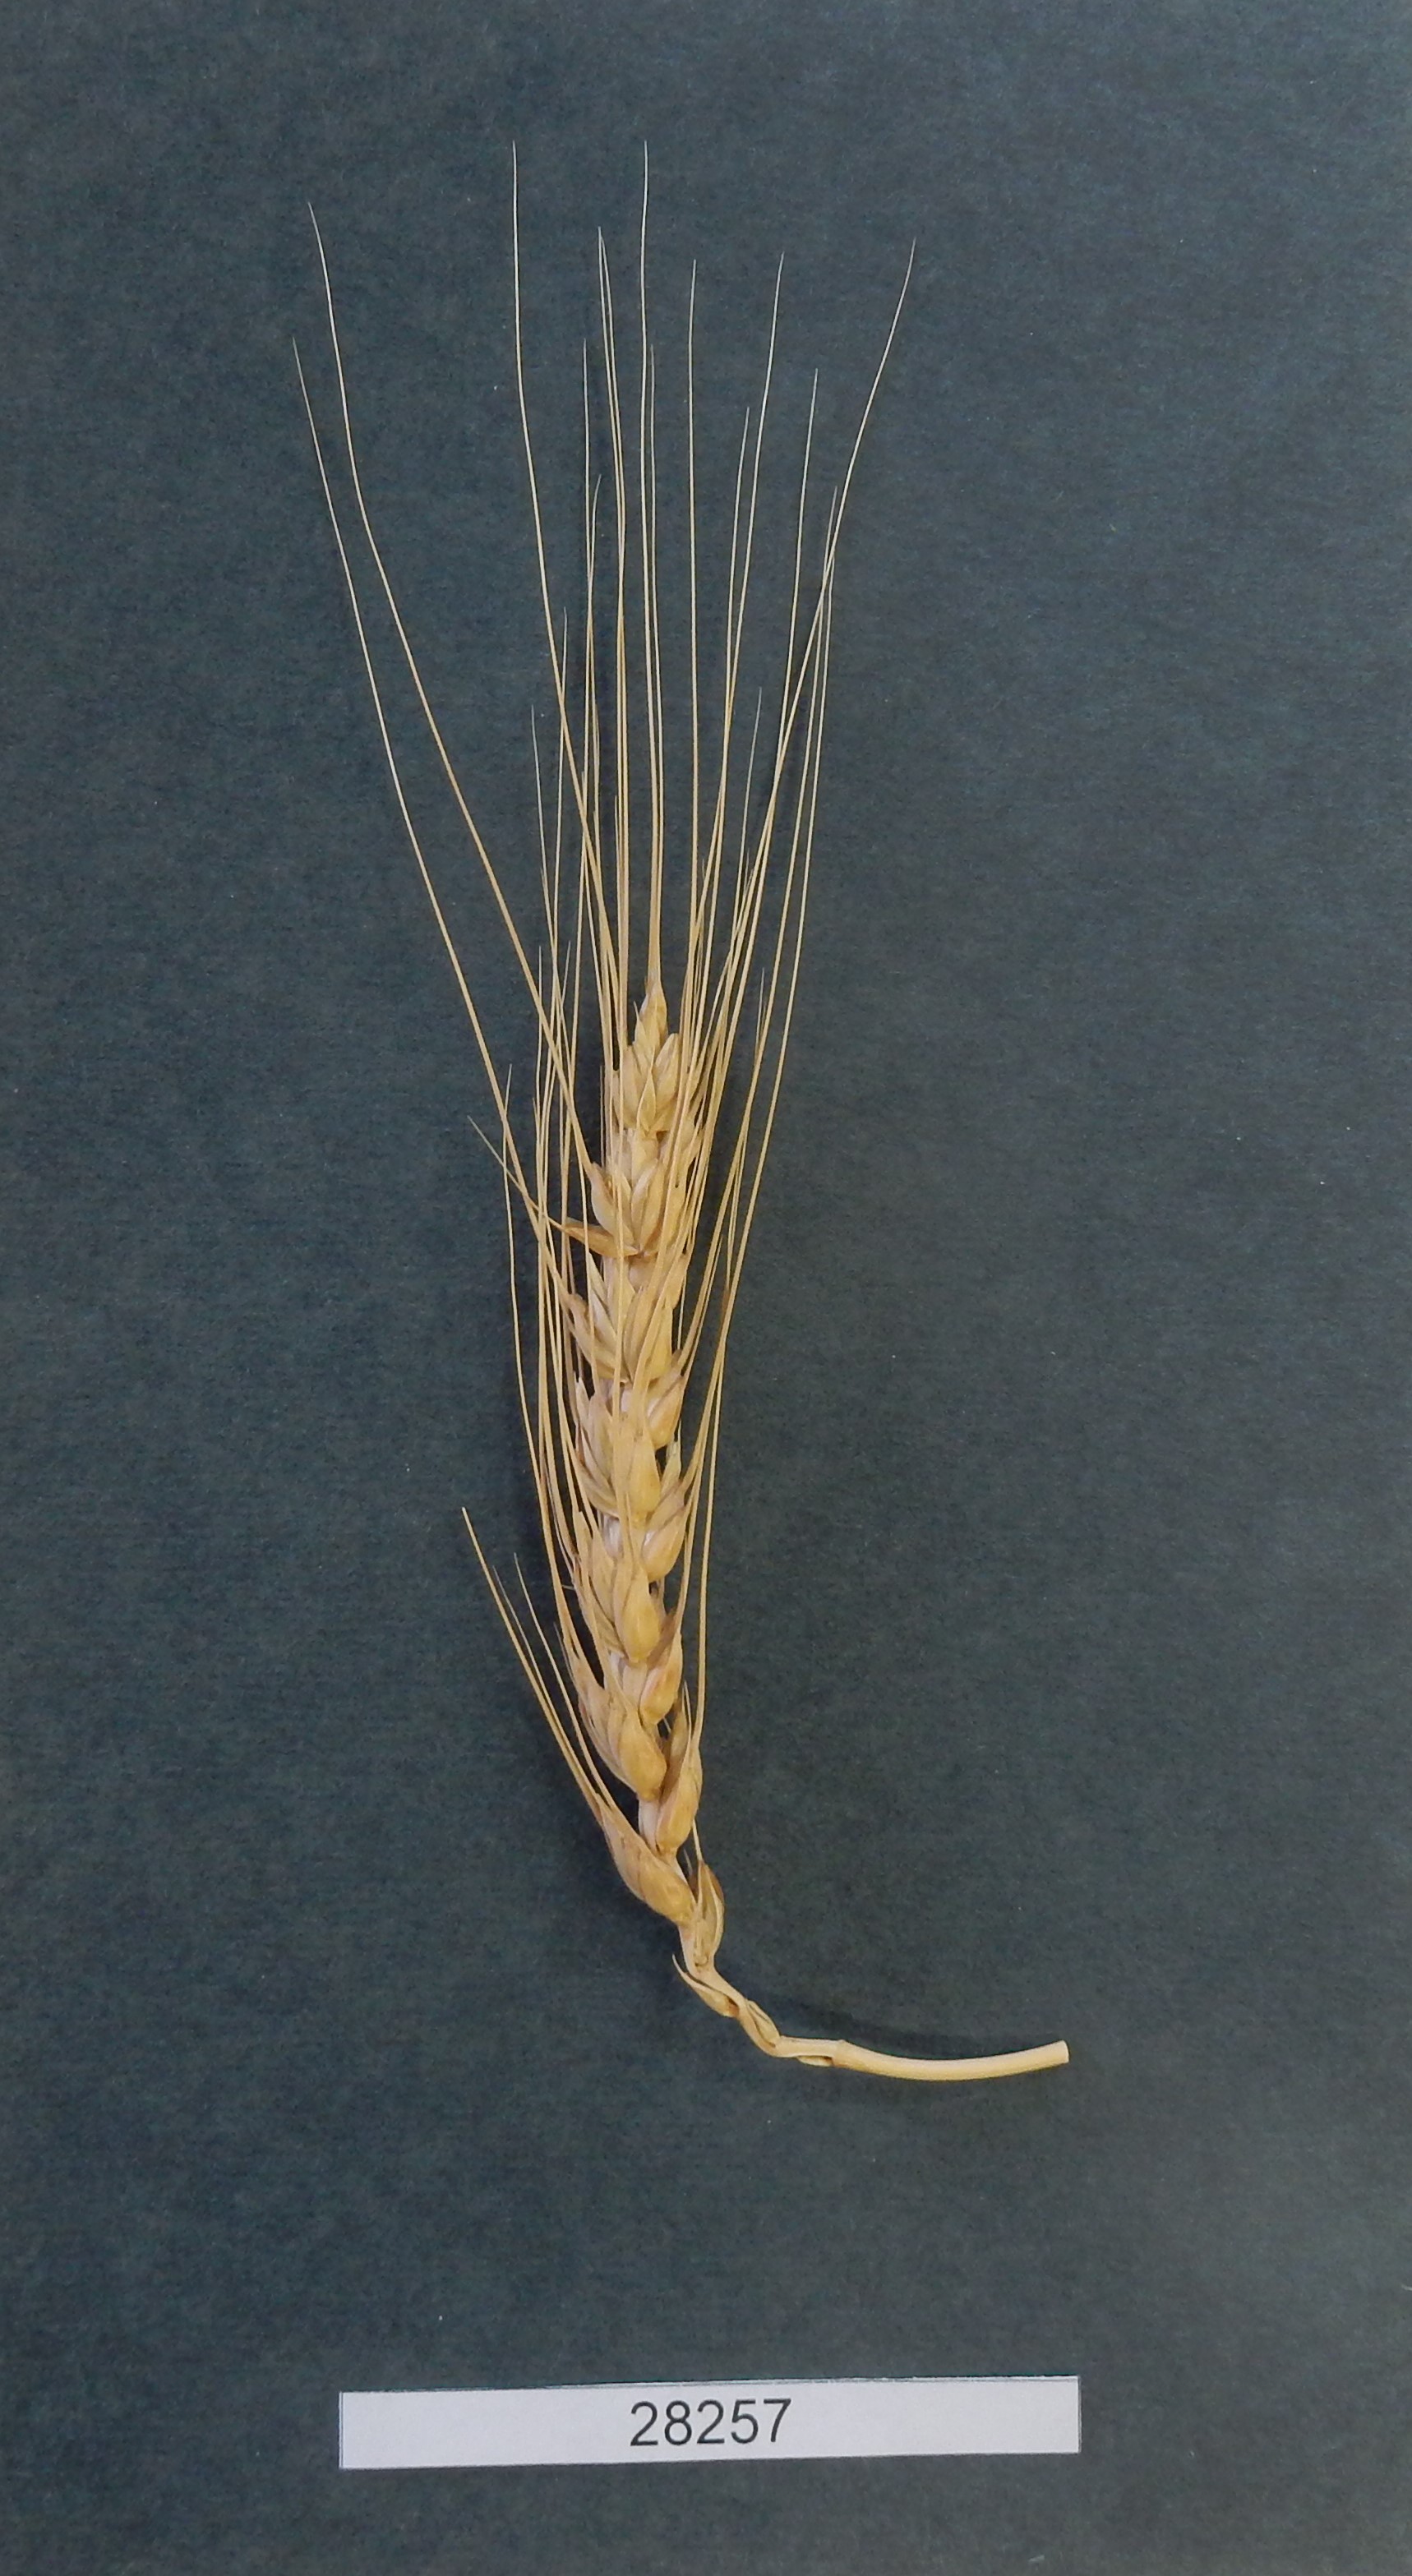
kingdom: Plantae
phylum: Tracheophyta
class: Liliopsida
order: Poales
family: Poaceae
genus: Triticum
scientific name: Triticum aestivum
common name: Common wheat
